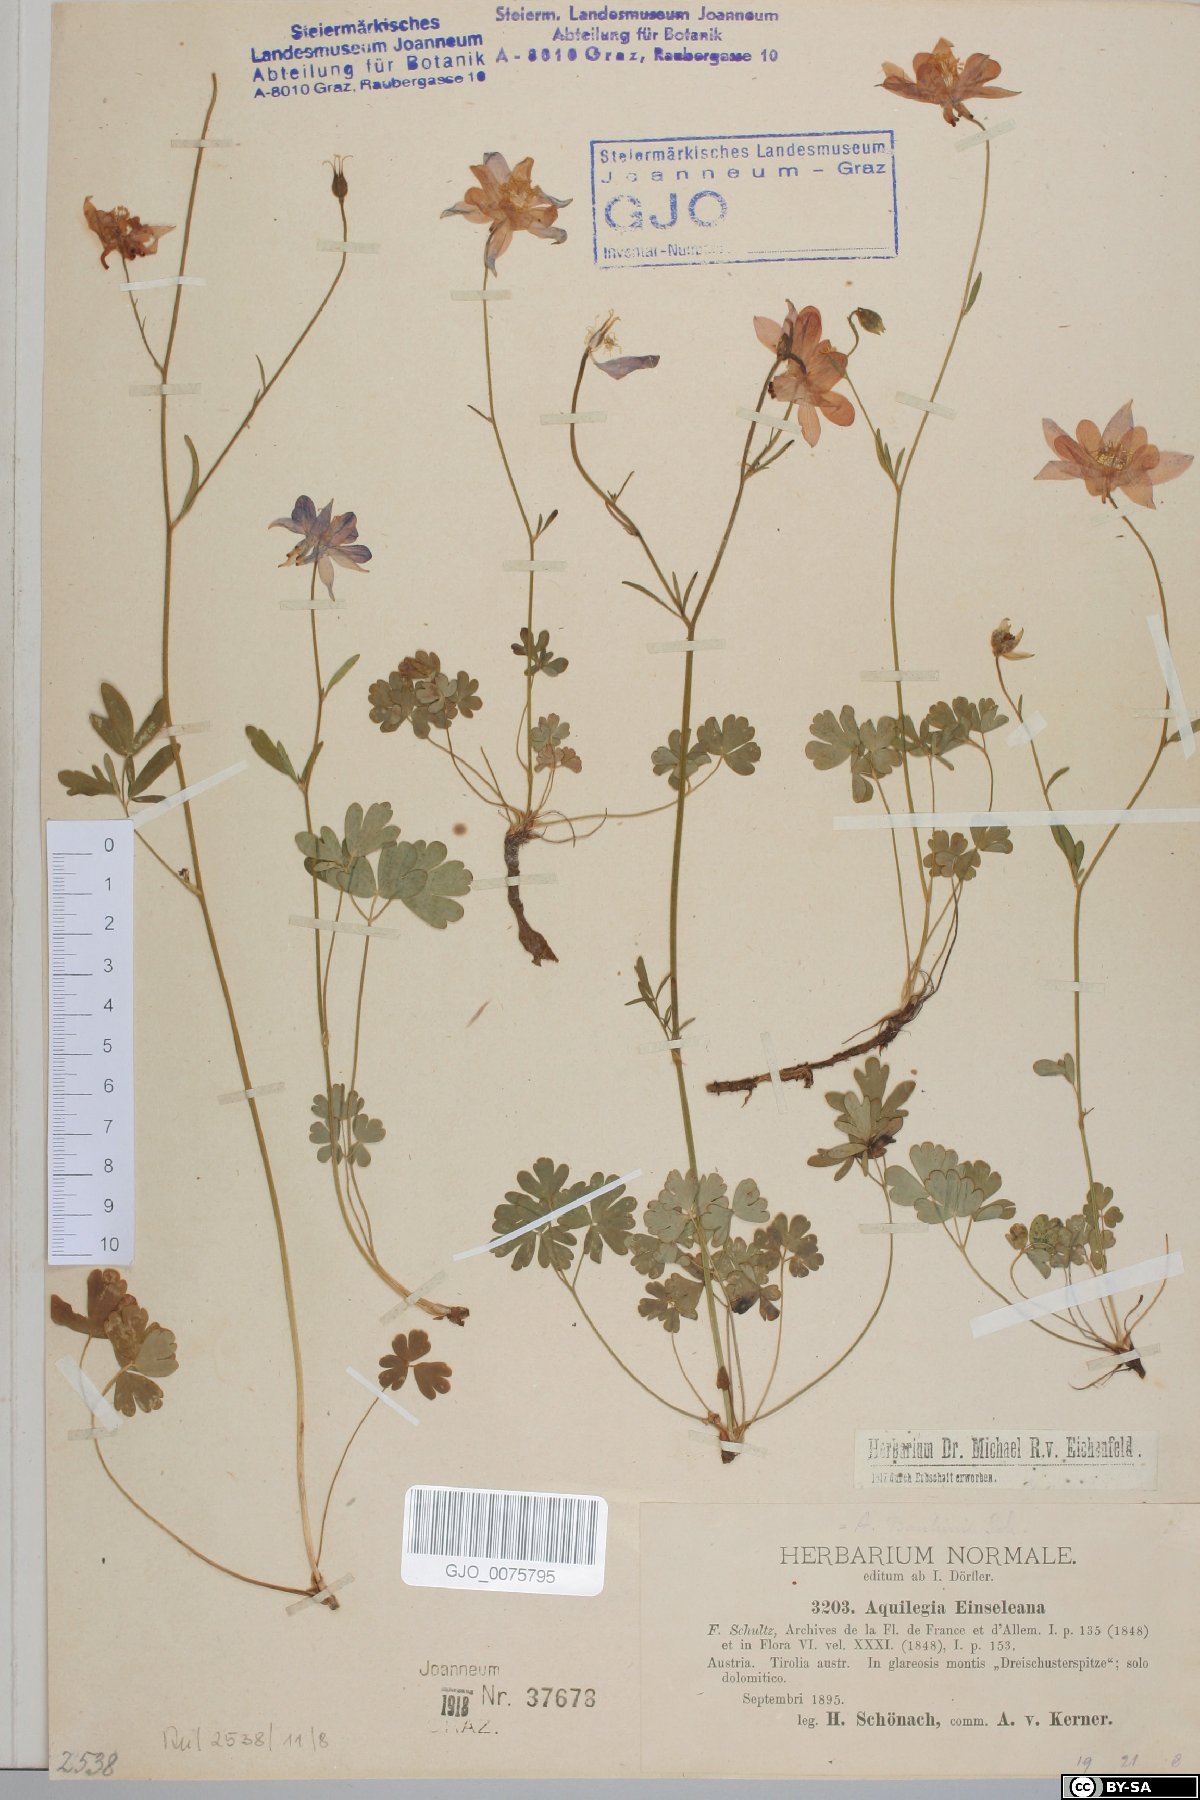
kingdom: Plantae
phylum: Tracheophyta
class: Magnoliopsida
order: Ranunculales
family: Ranunculaceae
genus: Aquilegia
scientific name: Aquilegia einseleana
